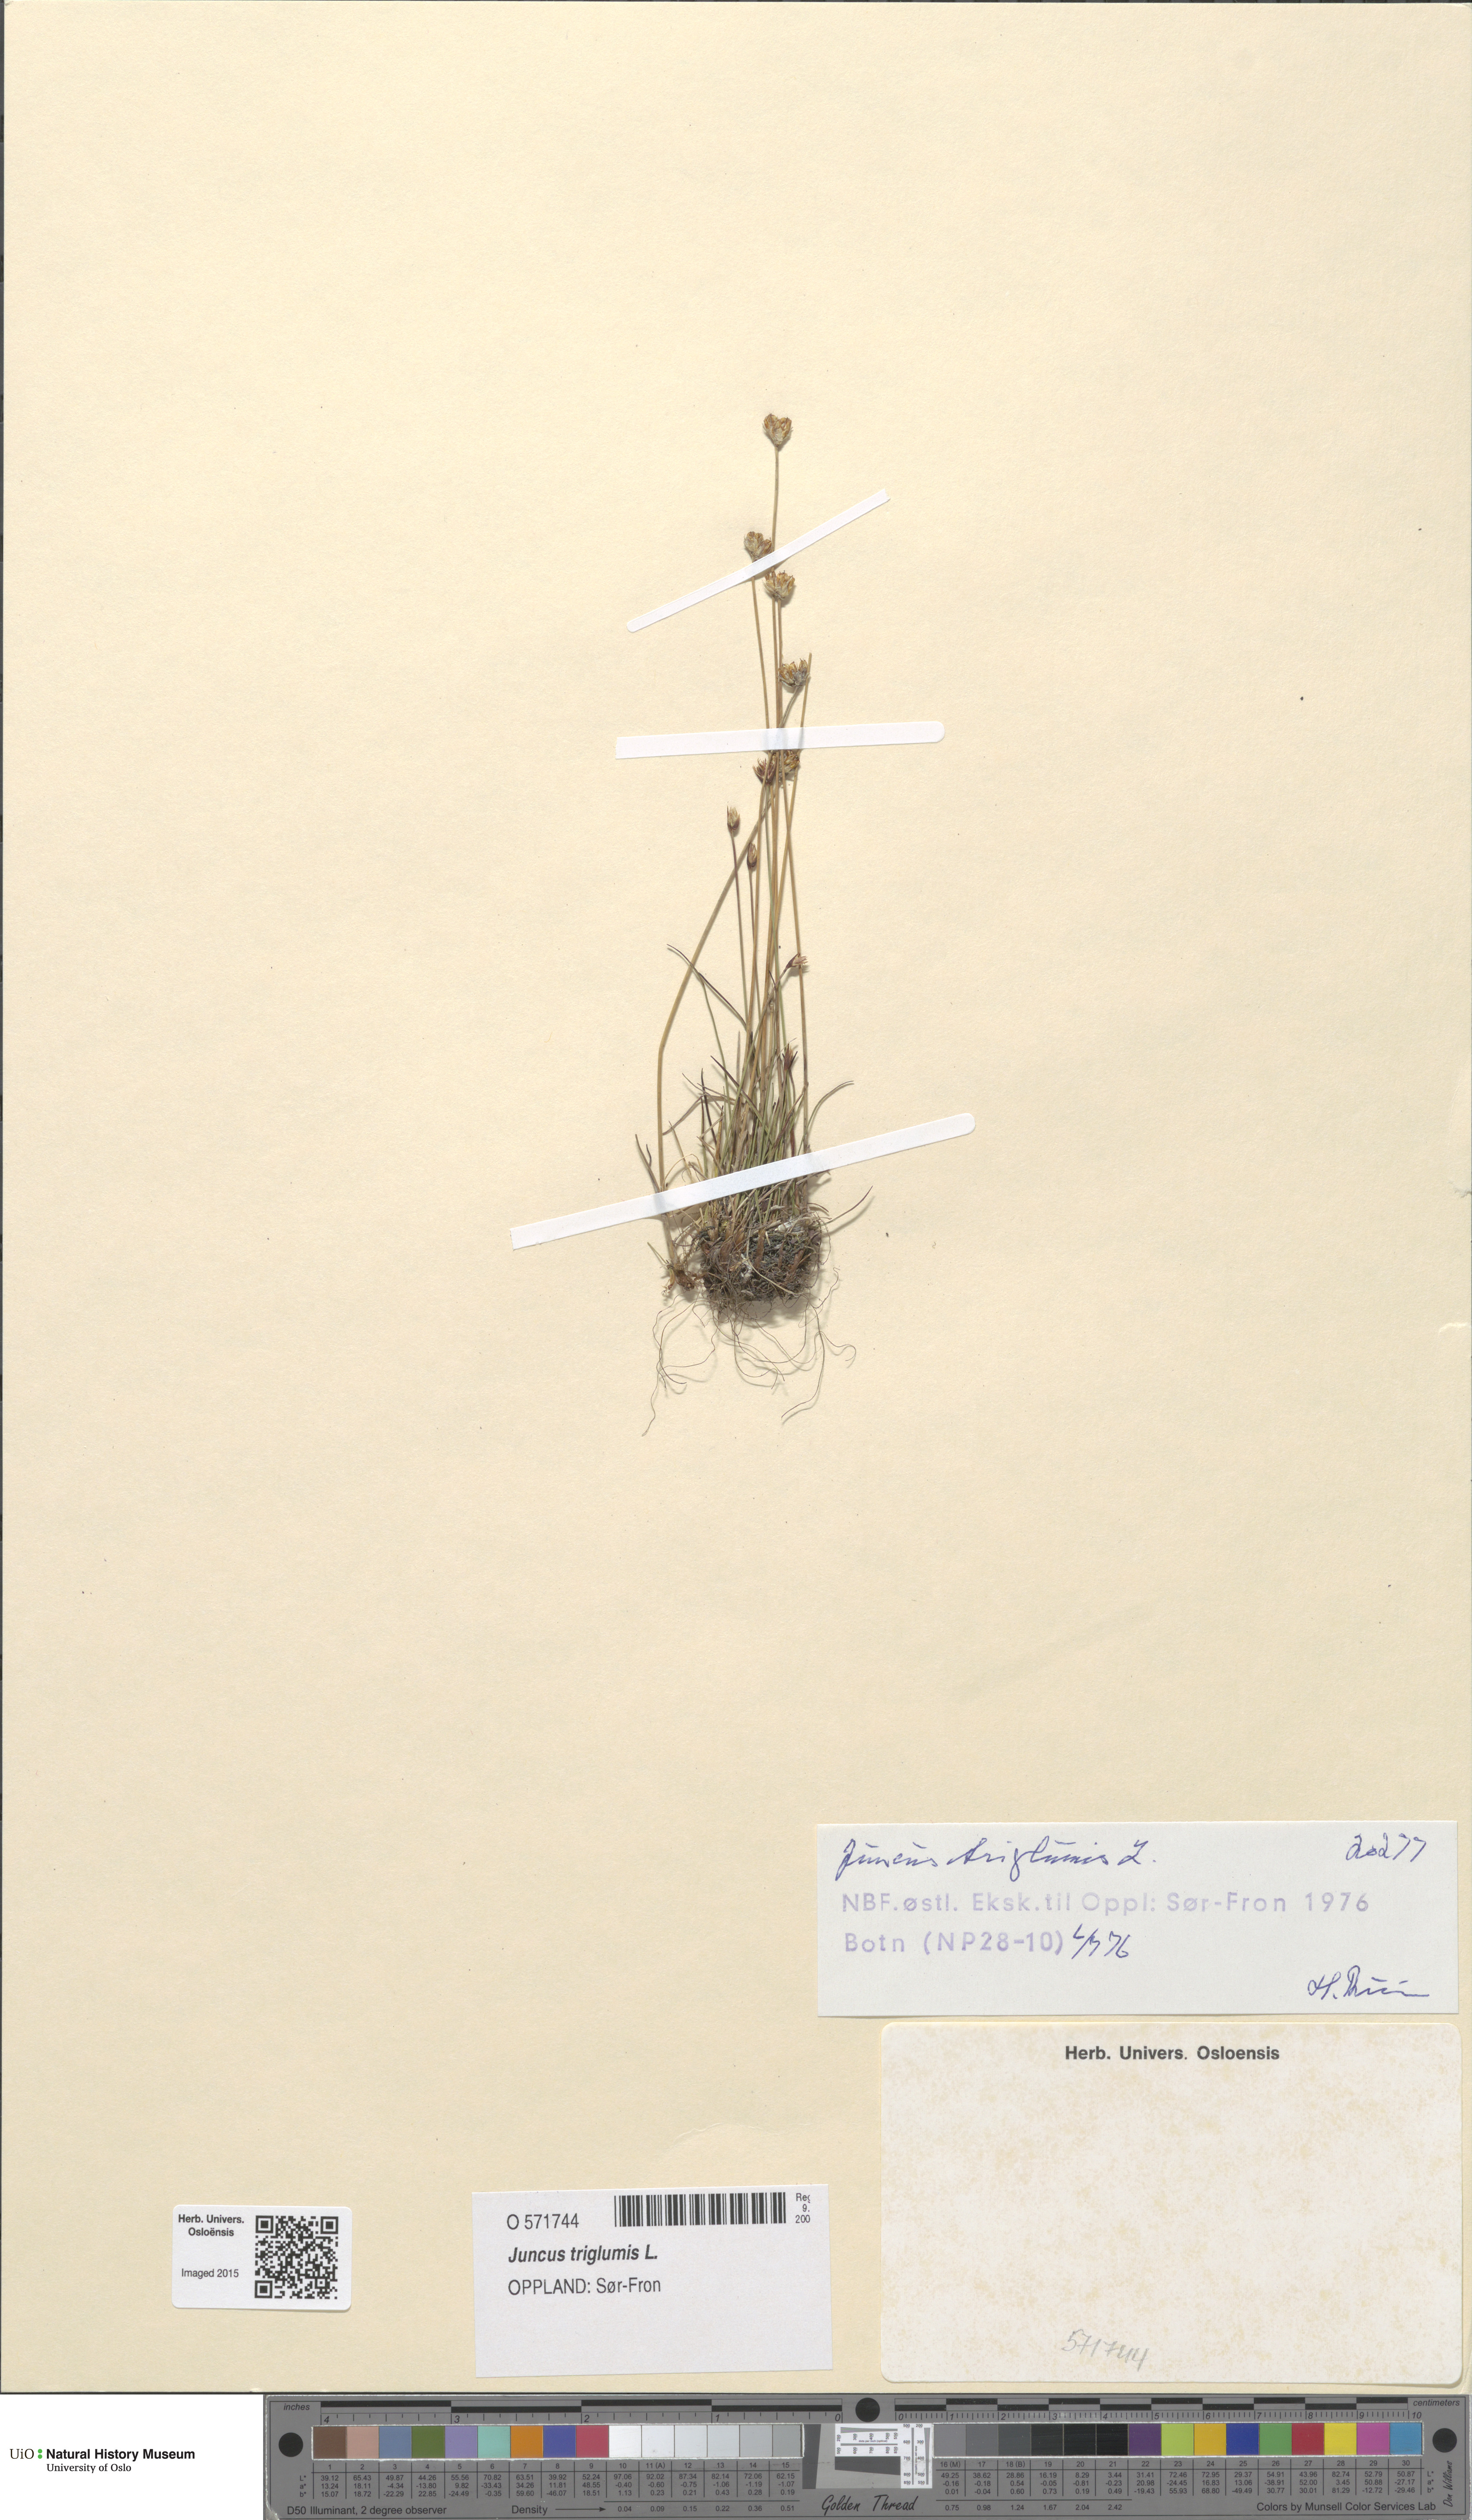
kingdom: Plantae
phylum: Tracheophyta
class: Liliopsida
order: Poales
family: Juncaceae
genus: Juncus
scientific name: Juncus triglumis
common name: Three-flowered rush
